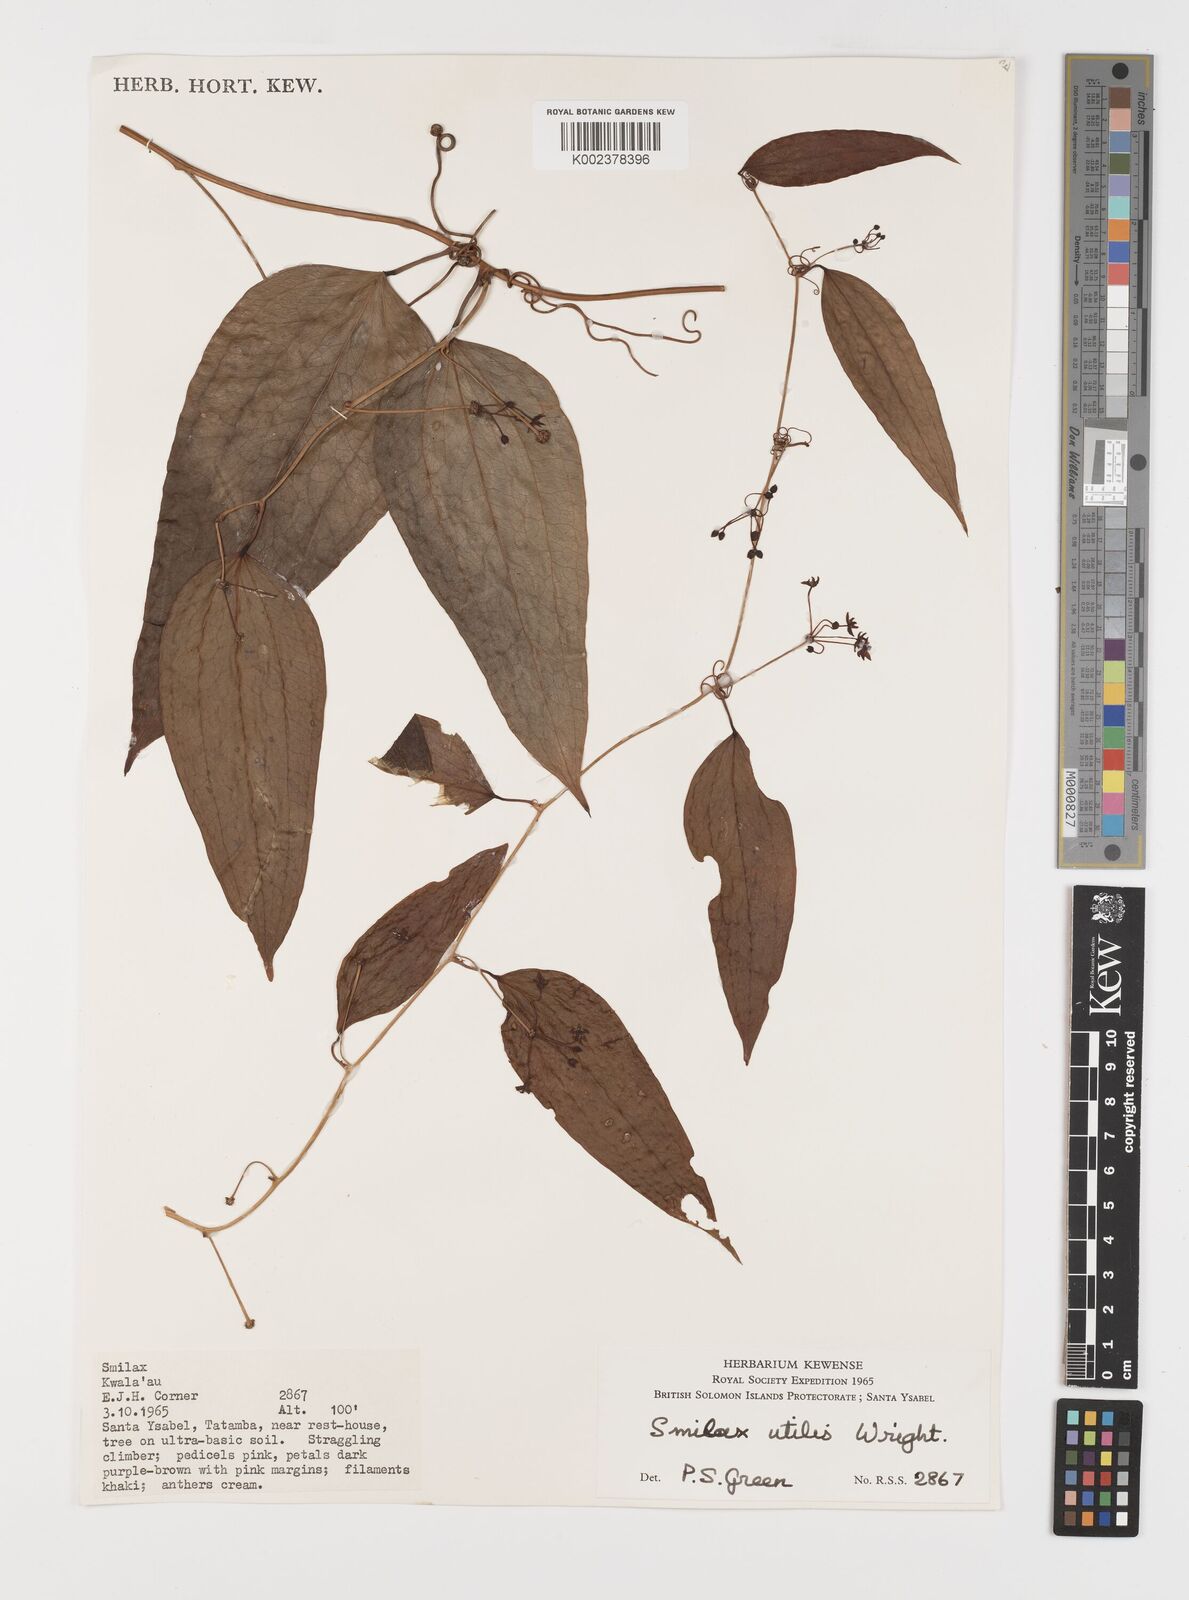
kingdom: Plantae
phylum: Tracheophyta
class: Liliopsida
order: Liliales
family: Smilacaceae
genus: Smilax
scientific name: Smilax ornata
